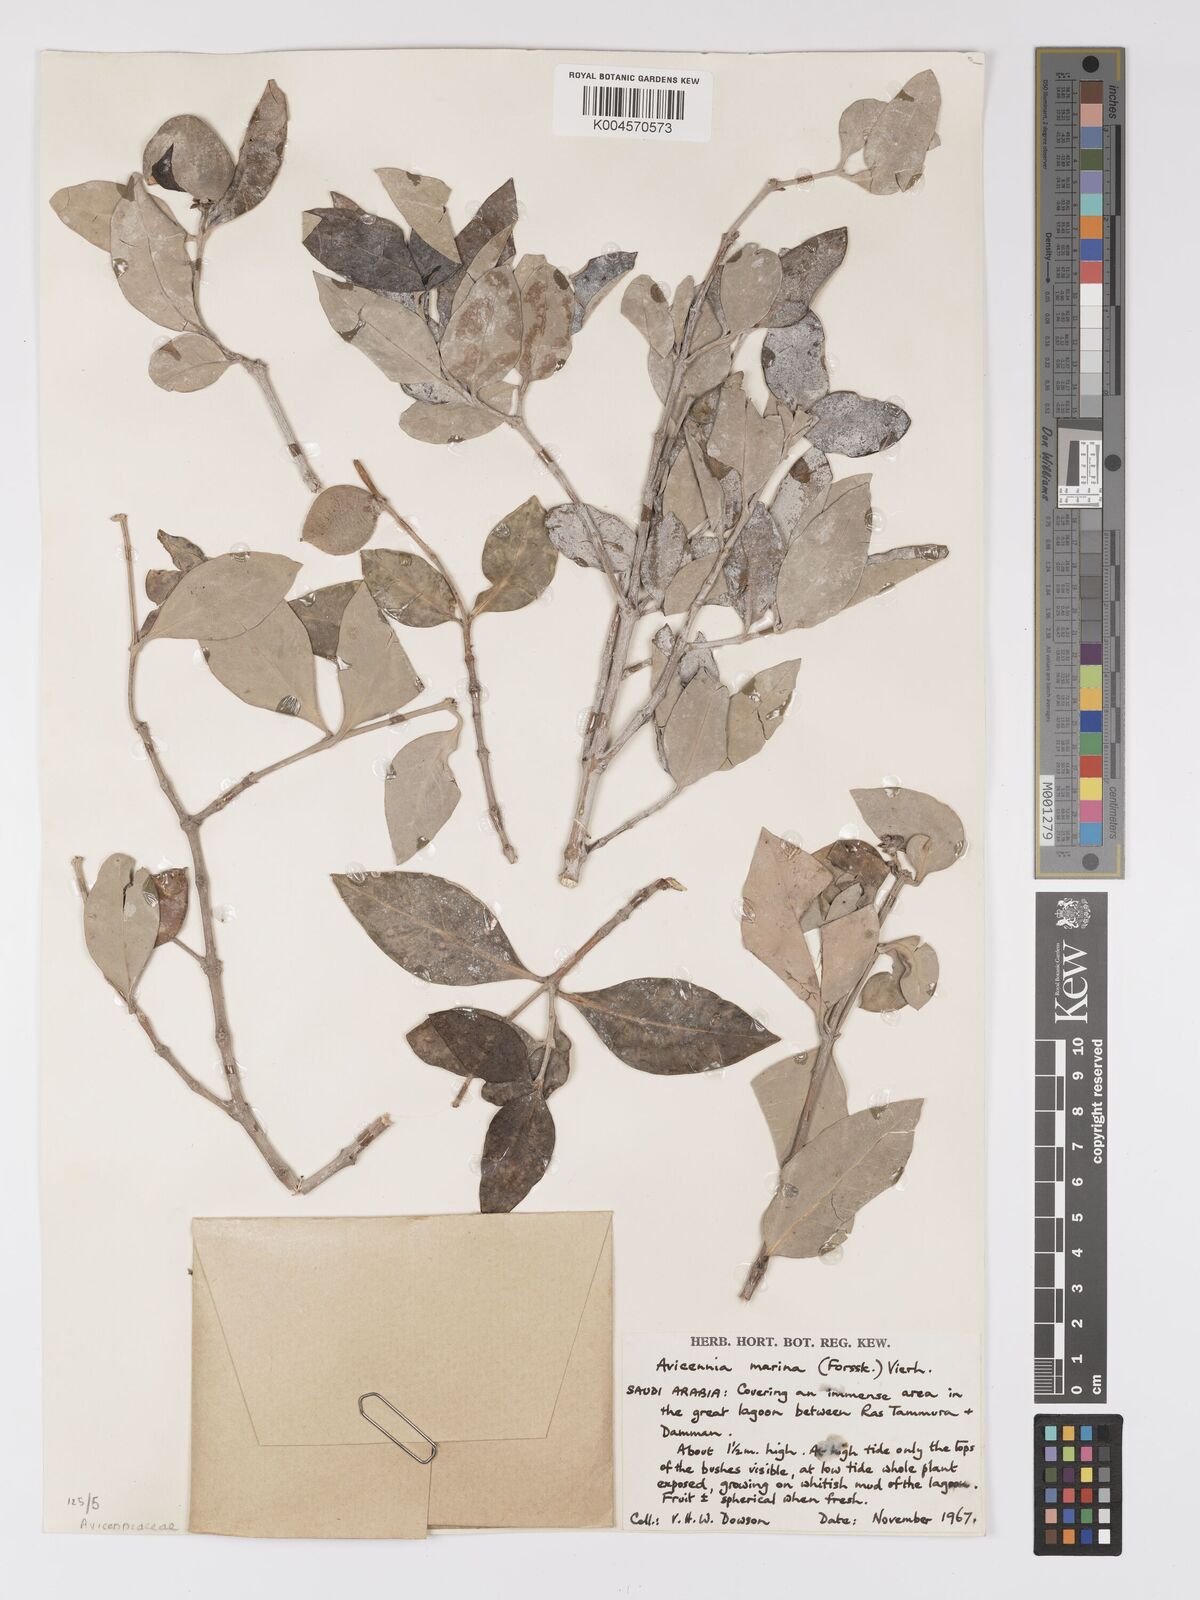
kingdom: Plantae
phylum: Tracheophyta
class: Magnoliopsida
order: Lamiales
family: Acanthaceae
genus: Avicennia
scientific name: Avicennia marina
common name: Gray mangrove
